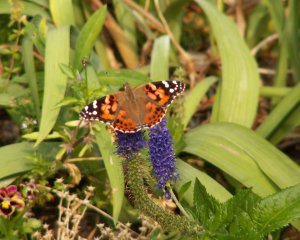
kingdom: Animalia
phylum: Arthropoda
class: Insecta
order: Lepidoptera
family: Nymphalidae
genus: Vanessa
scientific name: Vanessa cardui
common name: Painted Lady
